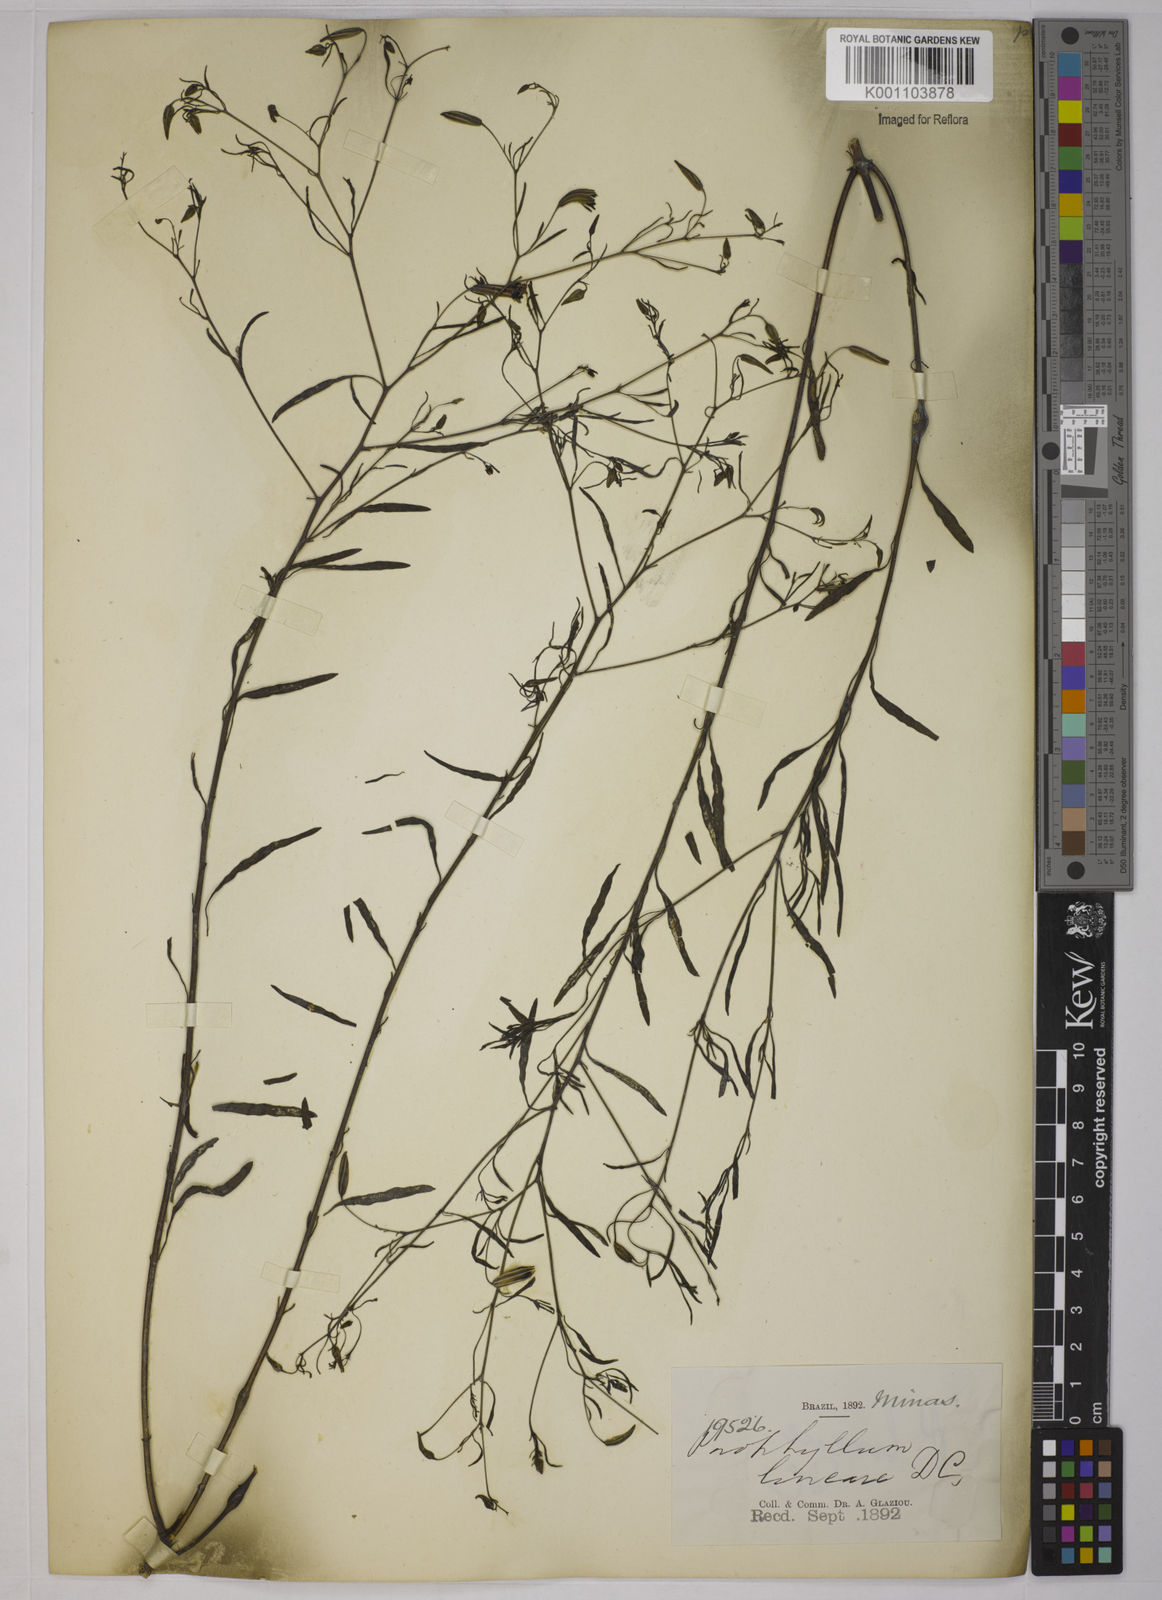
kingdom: Plantae
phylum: Tracheophyta
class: Magnoliopsida
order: Asterales
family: Asteraceae
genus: Porophyllum
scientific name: Porophyllum obscurum
